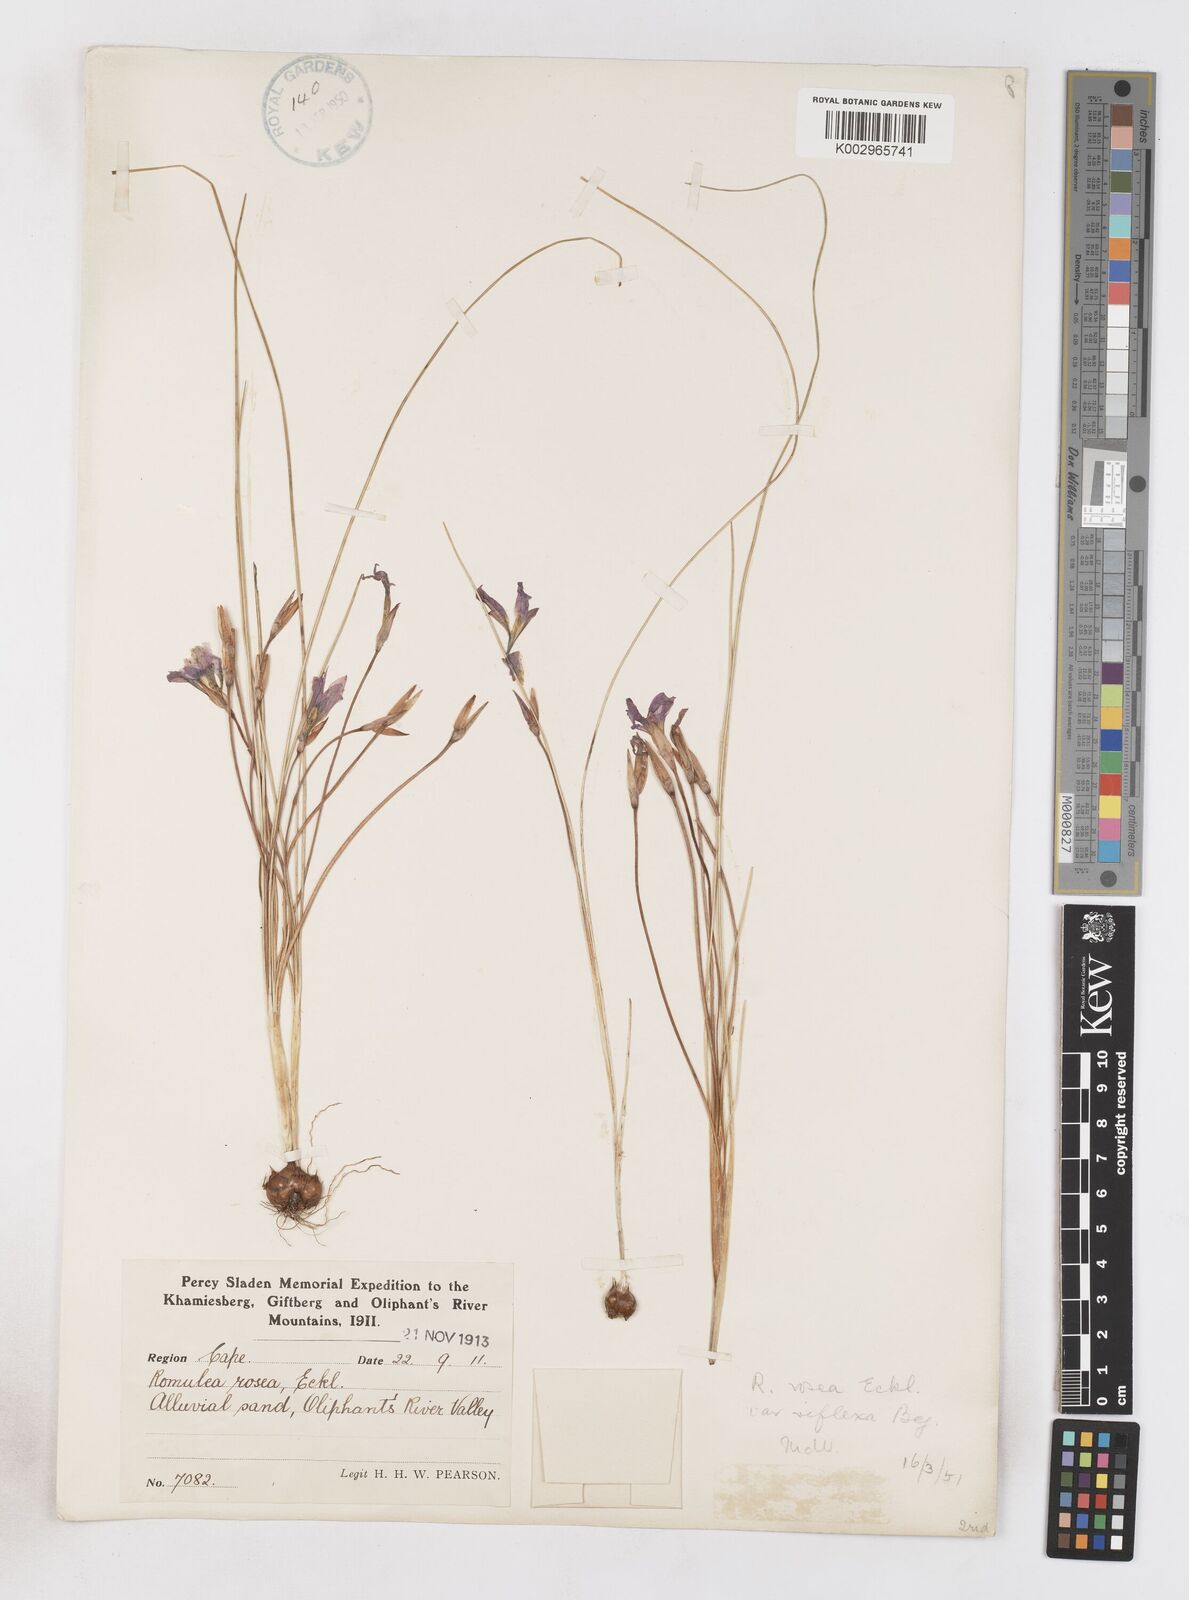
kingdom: Plantae
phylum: Tracheophyta
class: Liliopsida
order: Asparagales
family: Iridaceae
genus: Romulea
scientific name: Romulea rosea
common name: Oniongrass
